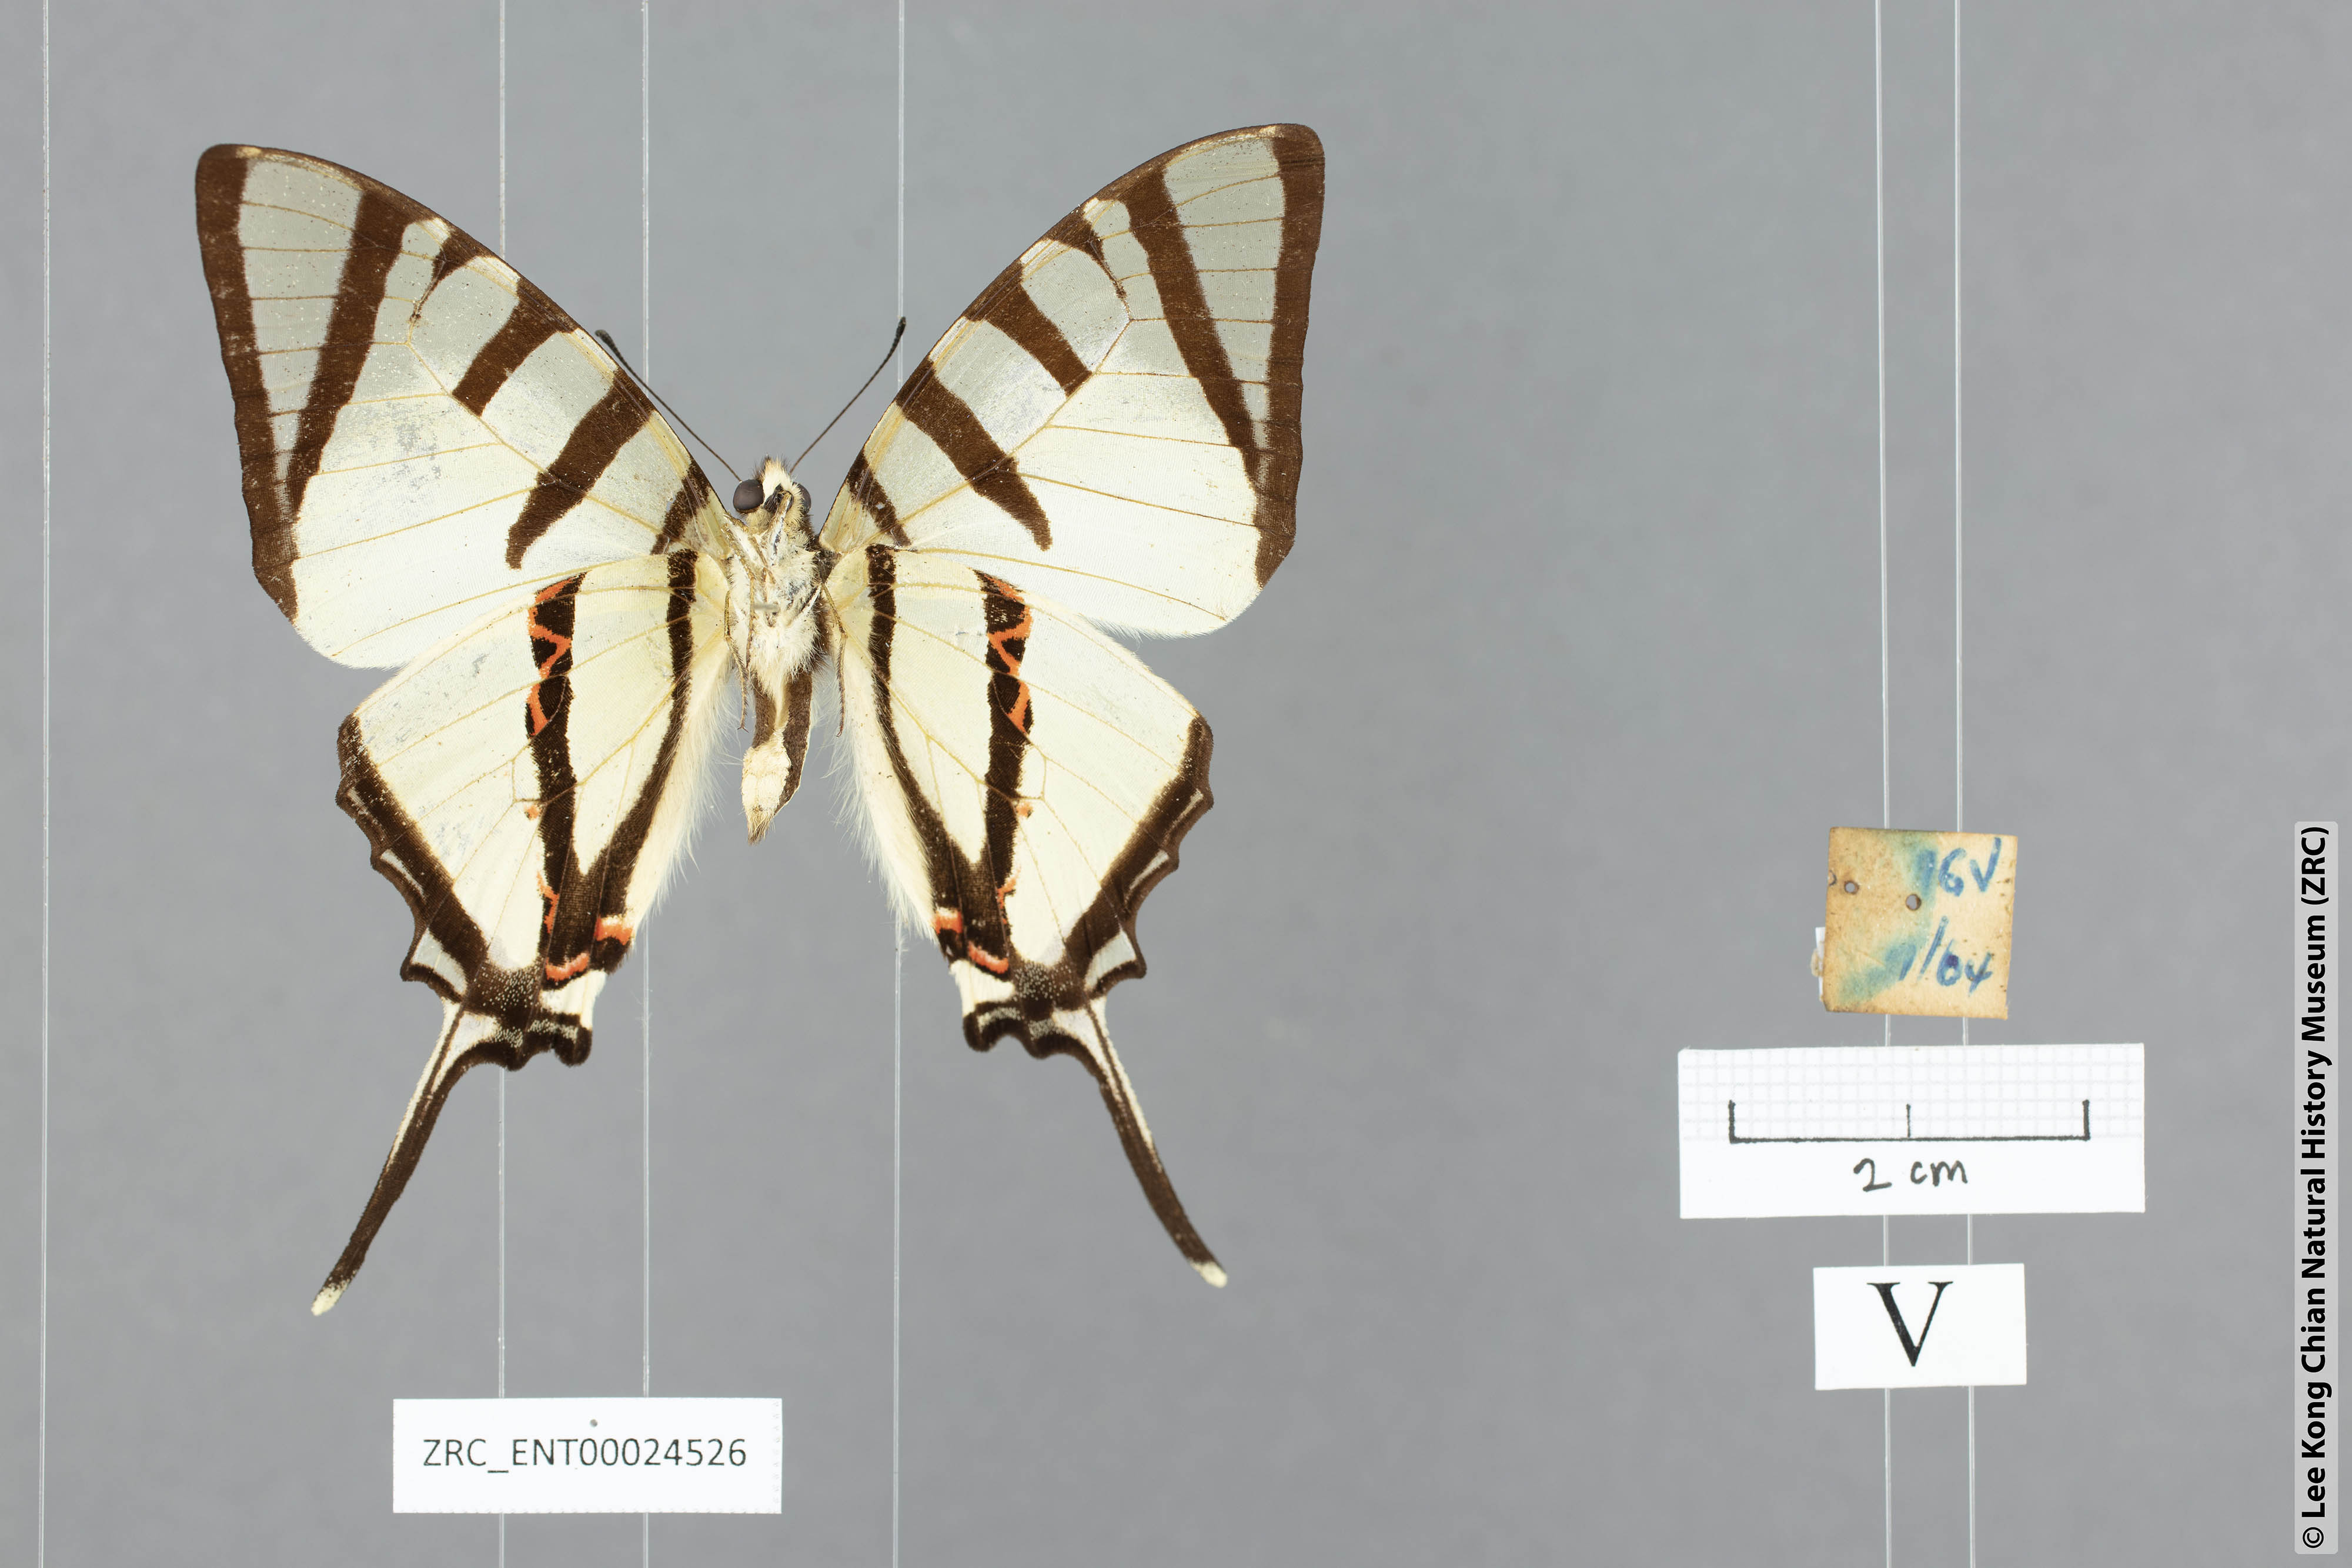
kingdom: Animalia
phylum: Arthropoda
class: Insecta
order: Lepidoptera
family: Papilionidae
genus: Graphium
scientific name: Graphium agetes
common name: Fourbar swordtail
